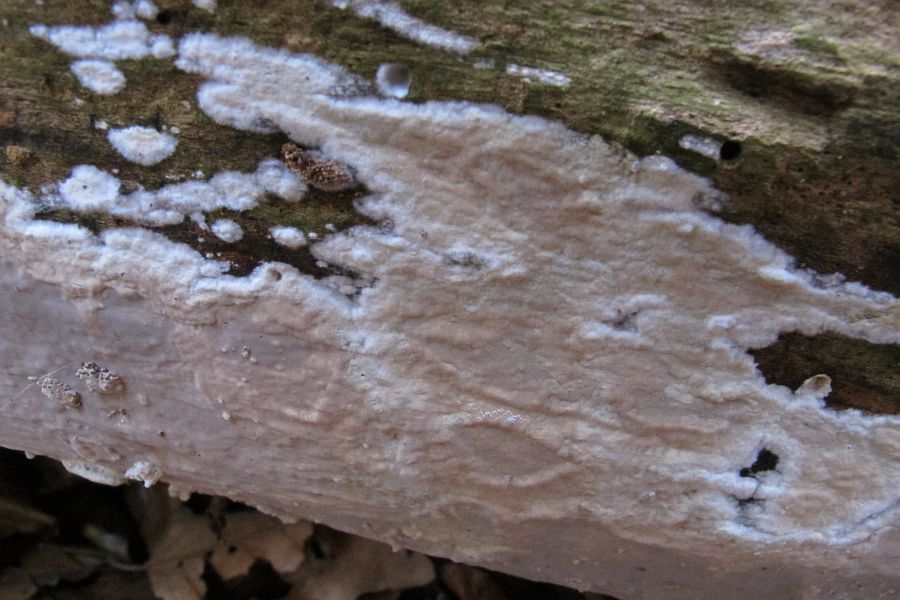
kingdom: Fungi
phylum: Basidiomycota
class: Agaricomycetes
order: Russulales
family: Peniophoraceae
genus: Scytinostroma
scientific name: Scytinostroma hemidichophyticum
